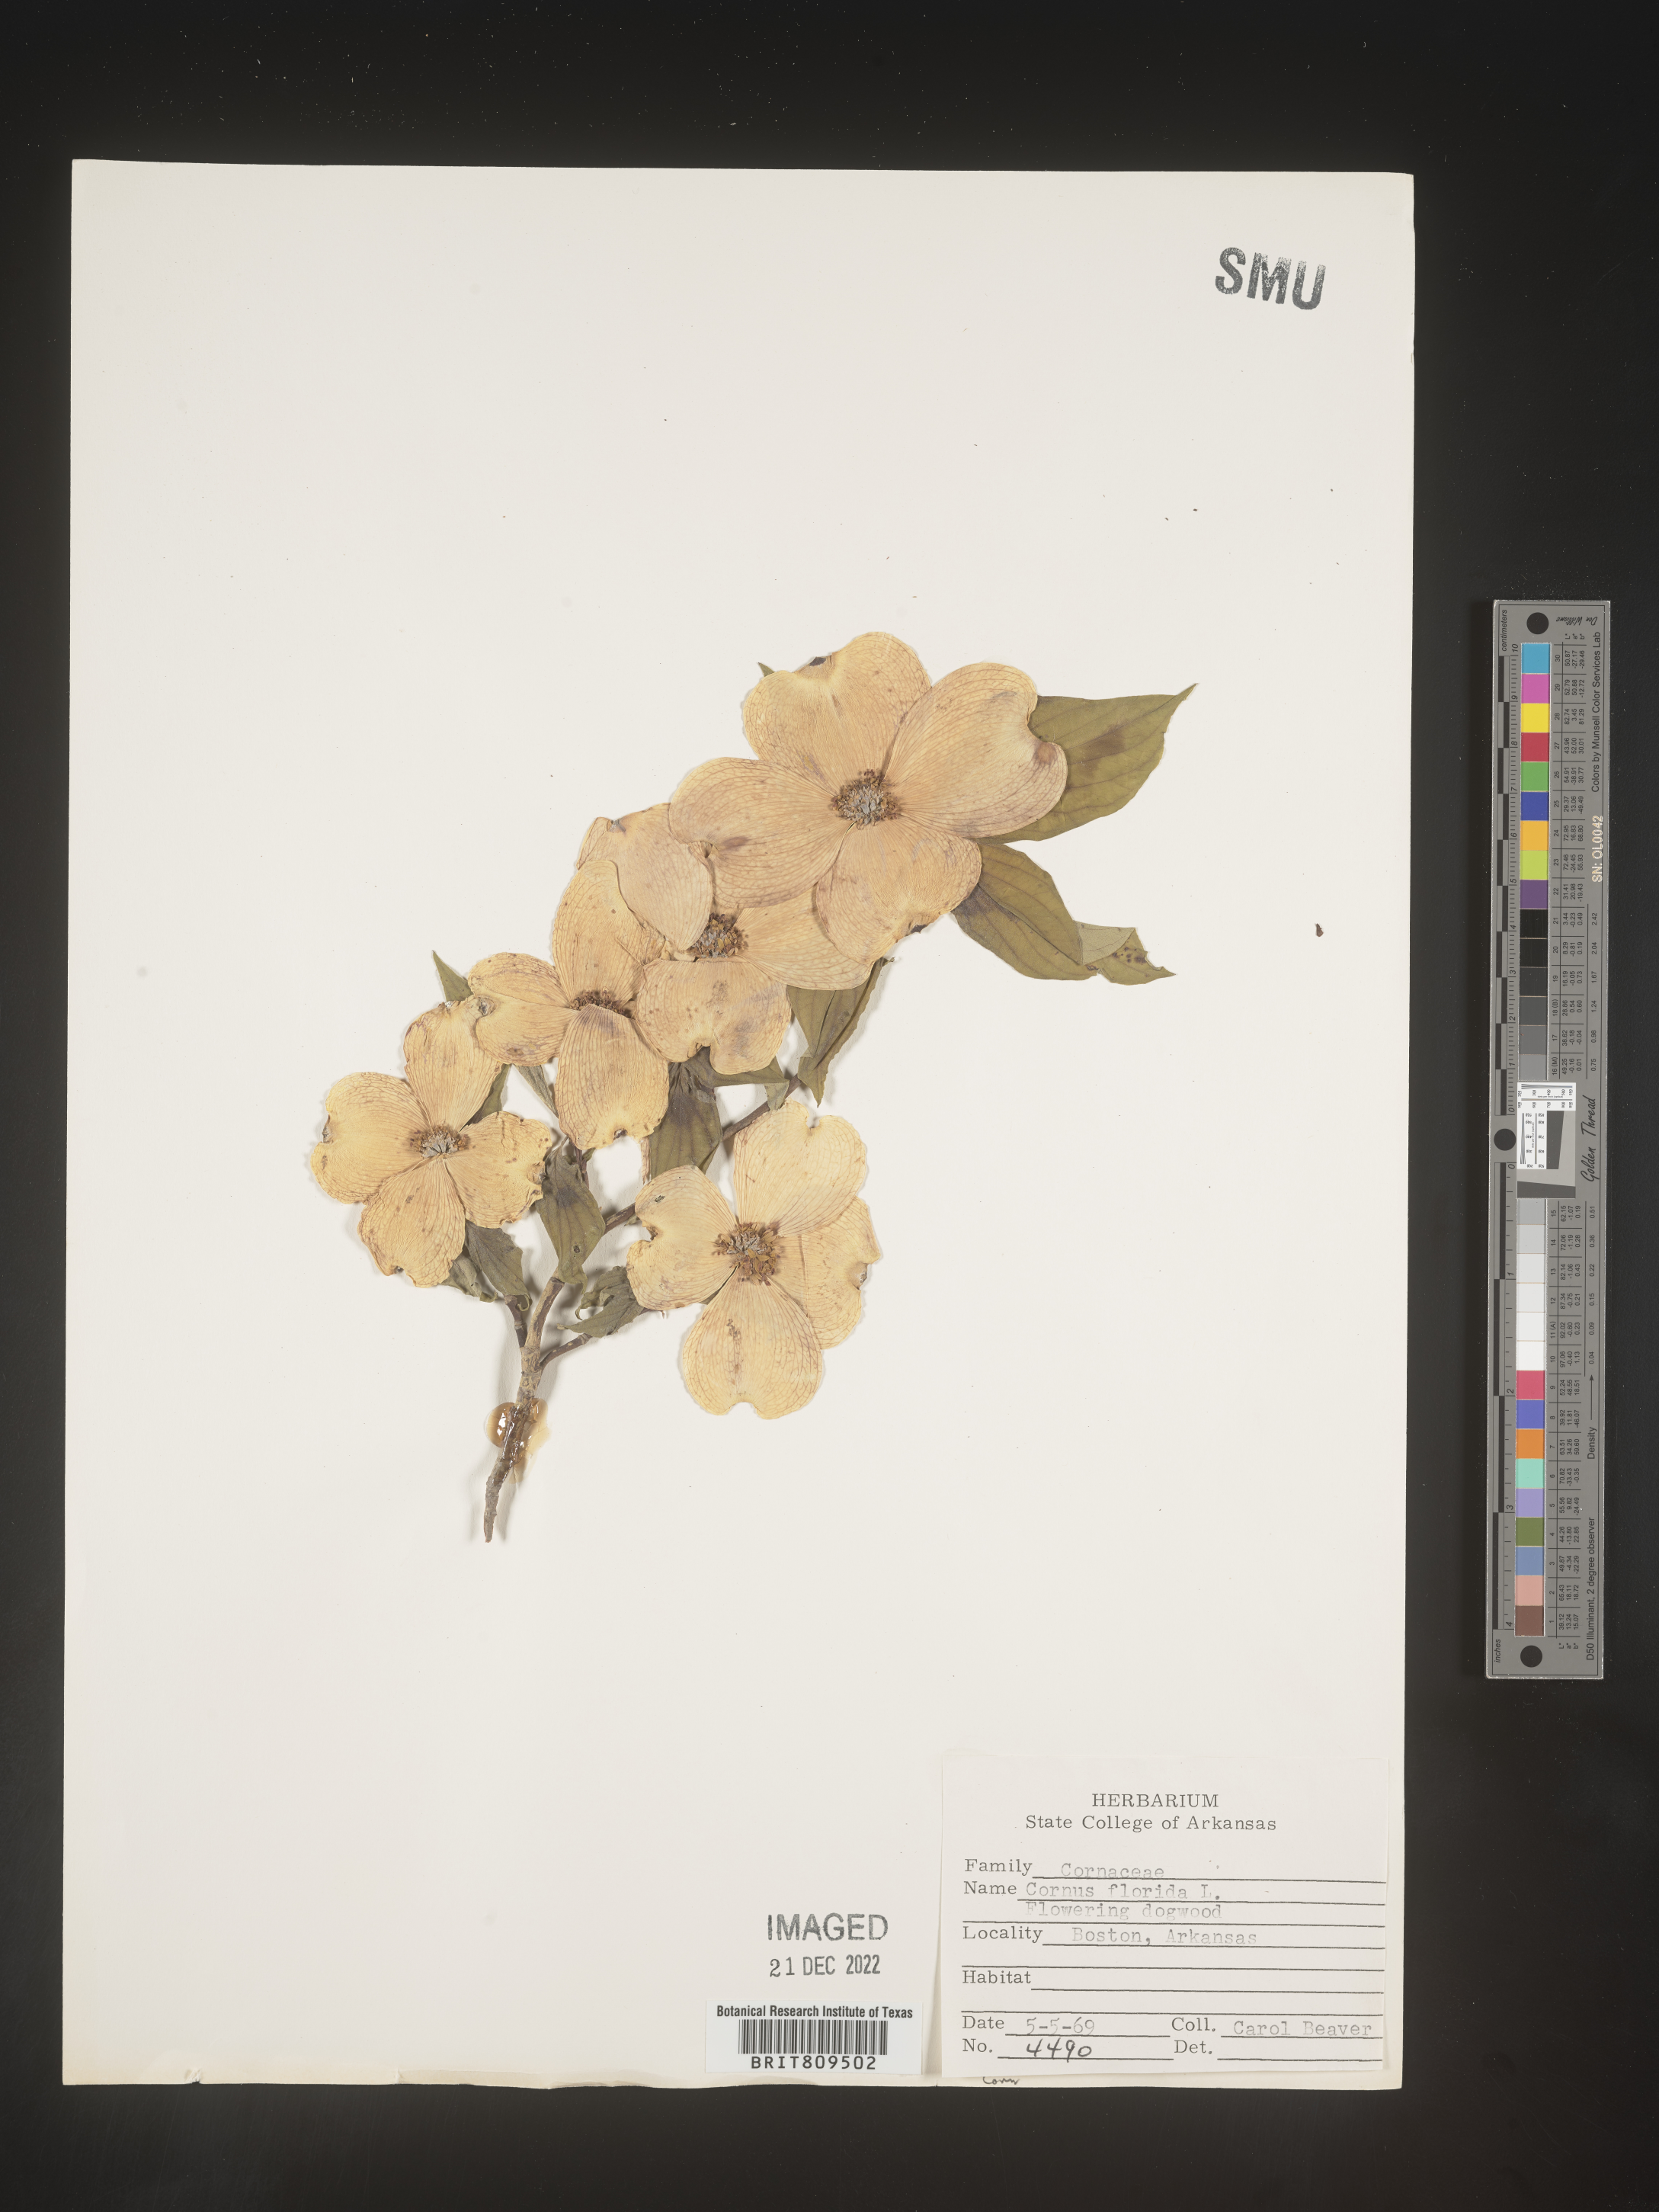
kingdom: Plantae
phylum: Tracheophyta
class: Magnoliopsida
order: Cornales
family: Cornaceae
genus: Cornus
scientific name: Cornus florida
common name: Flowering dogwood
